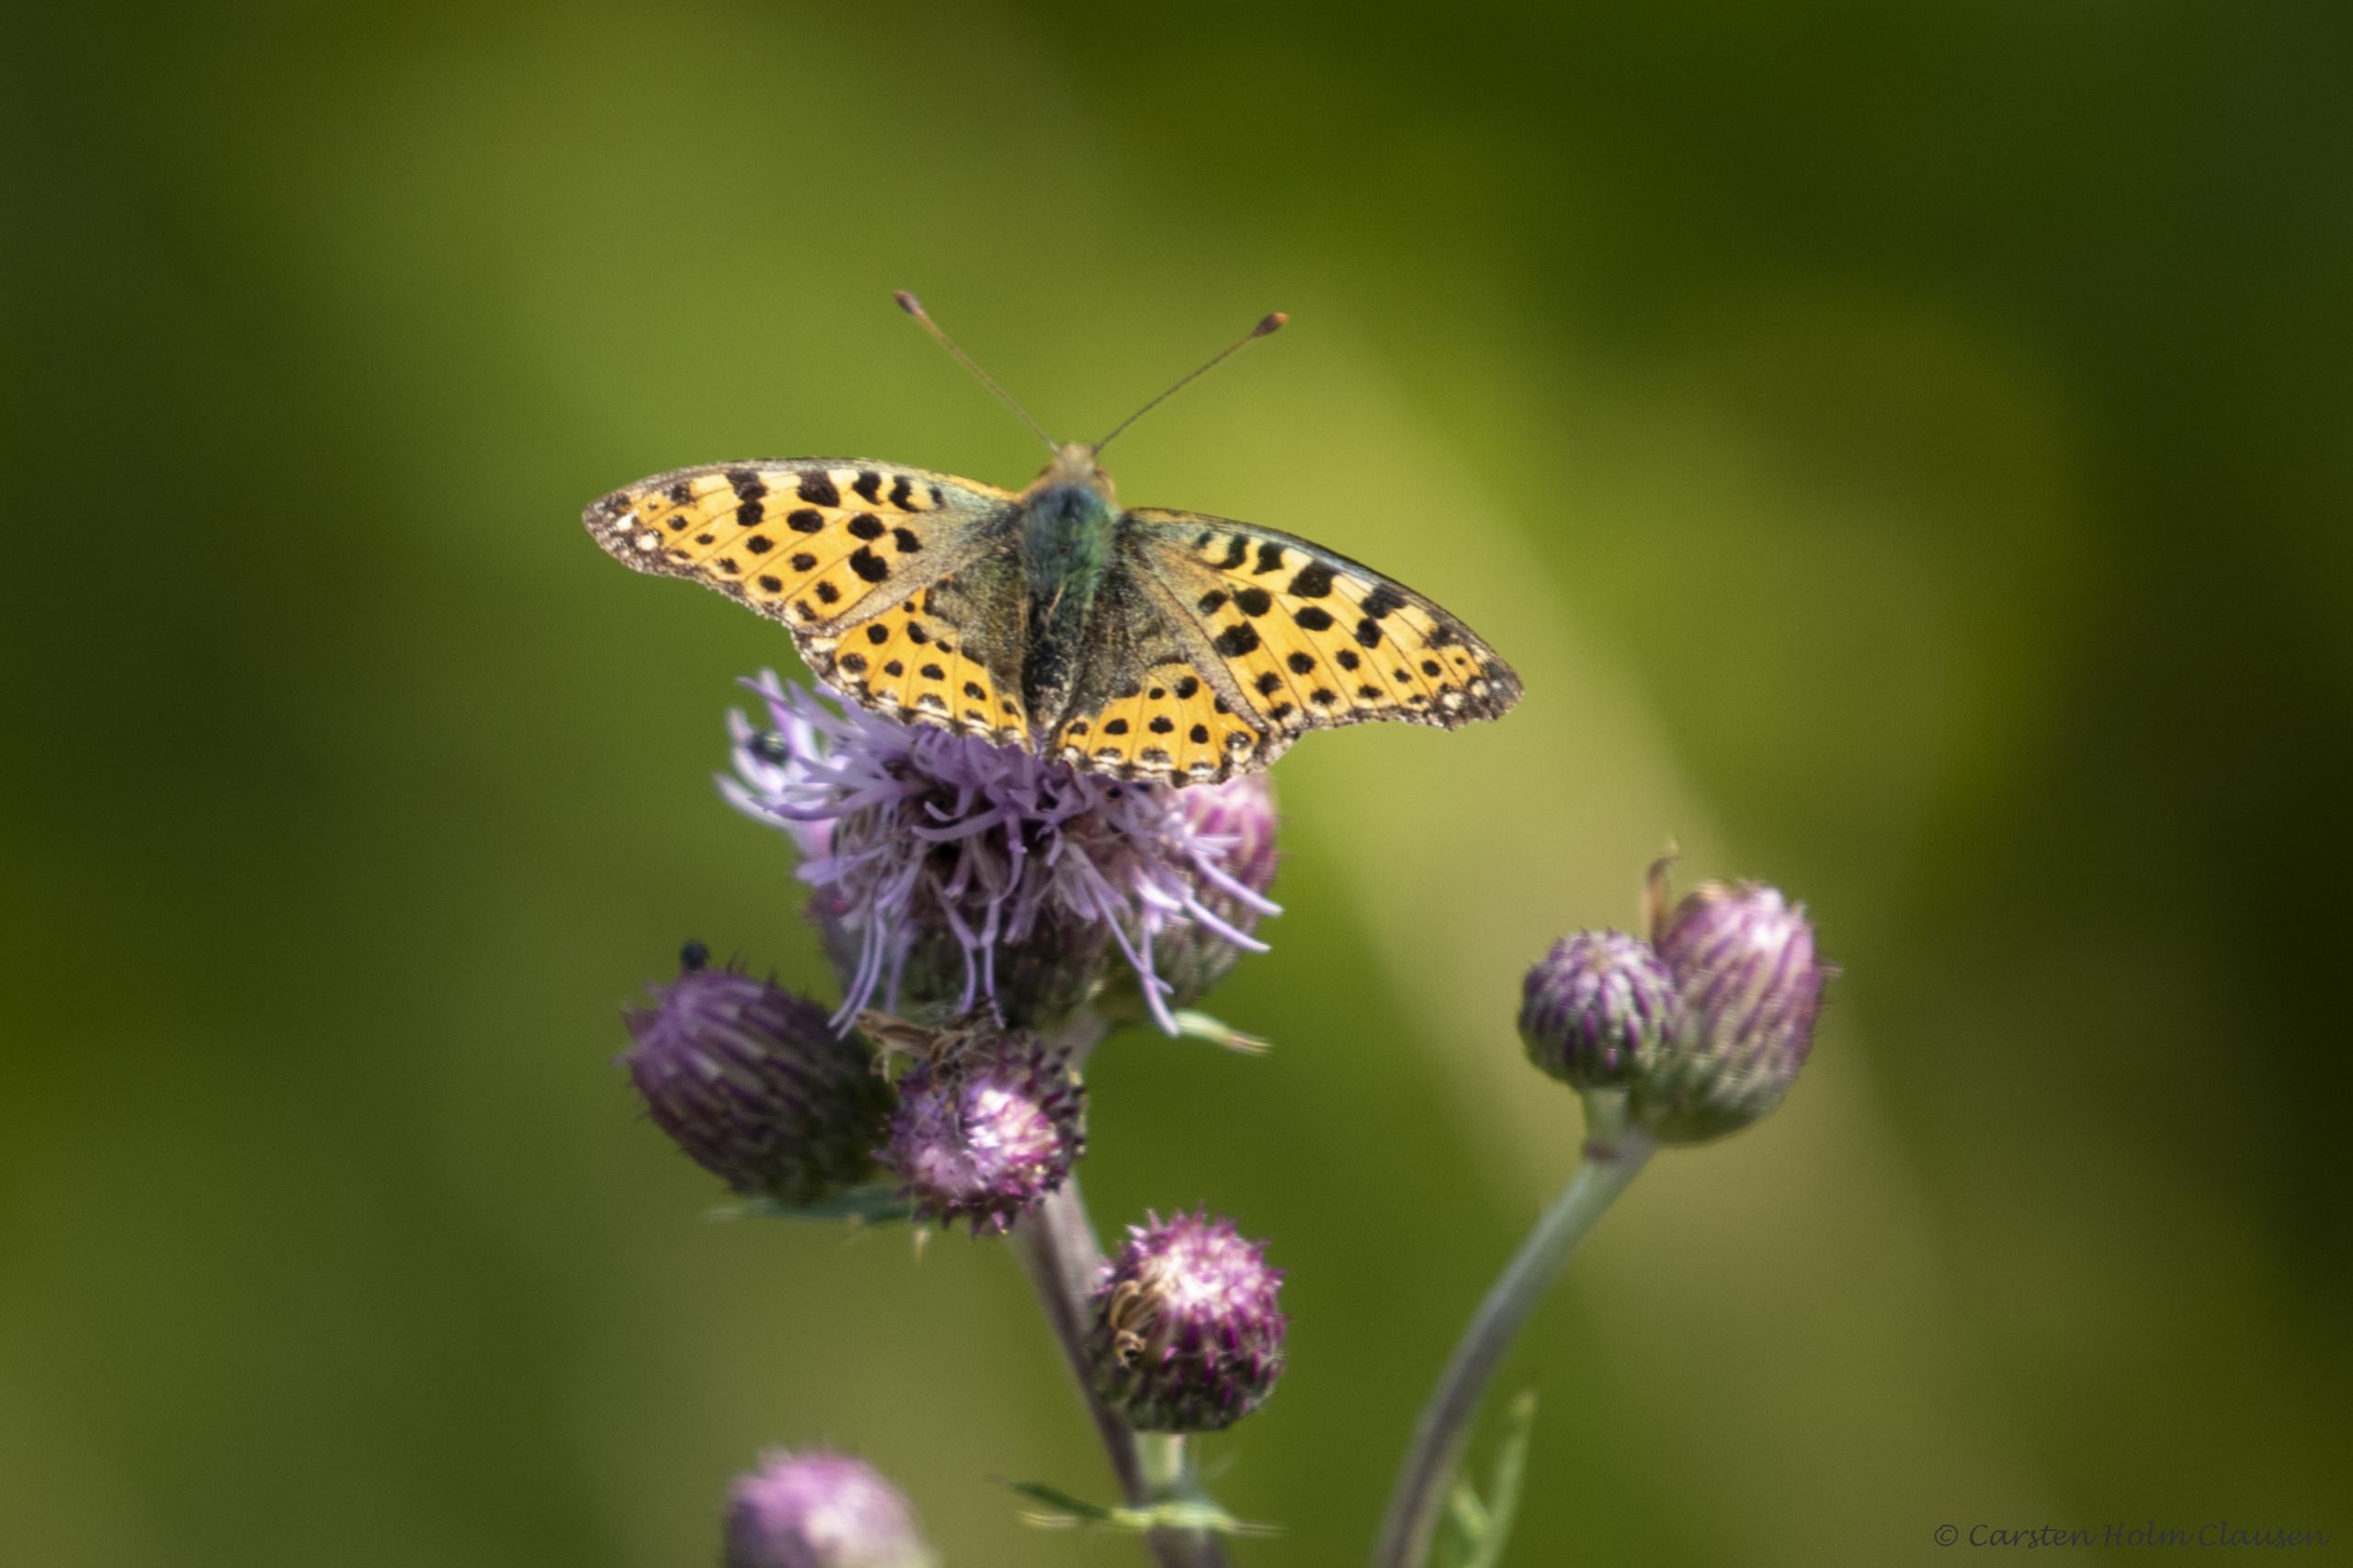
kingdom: Animalia
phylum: Arthropoda
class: Insecta
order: Lepidoptera
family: Nymphalidae
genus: Issoria
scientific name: Issoria lathonia
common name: Storplettet perlemorsommerfugl
